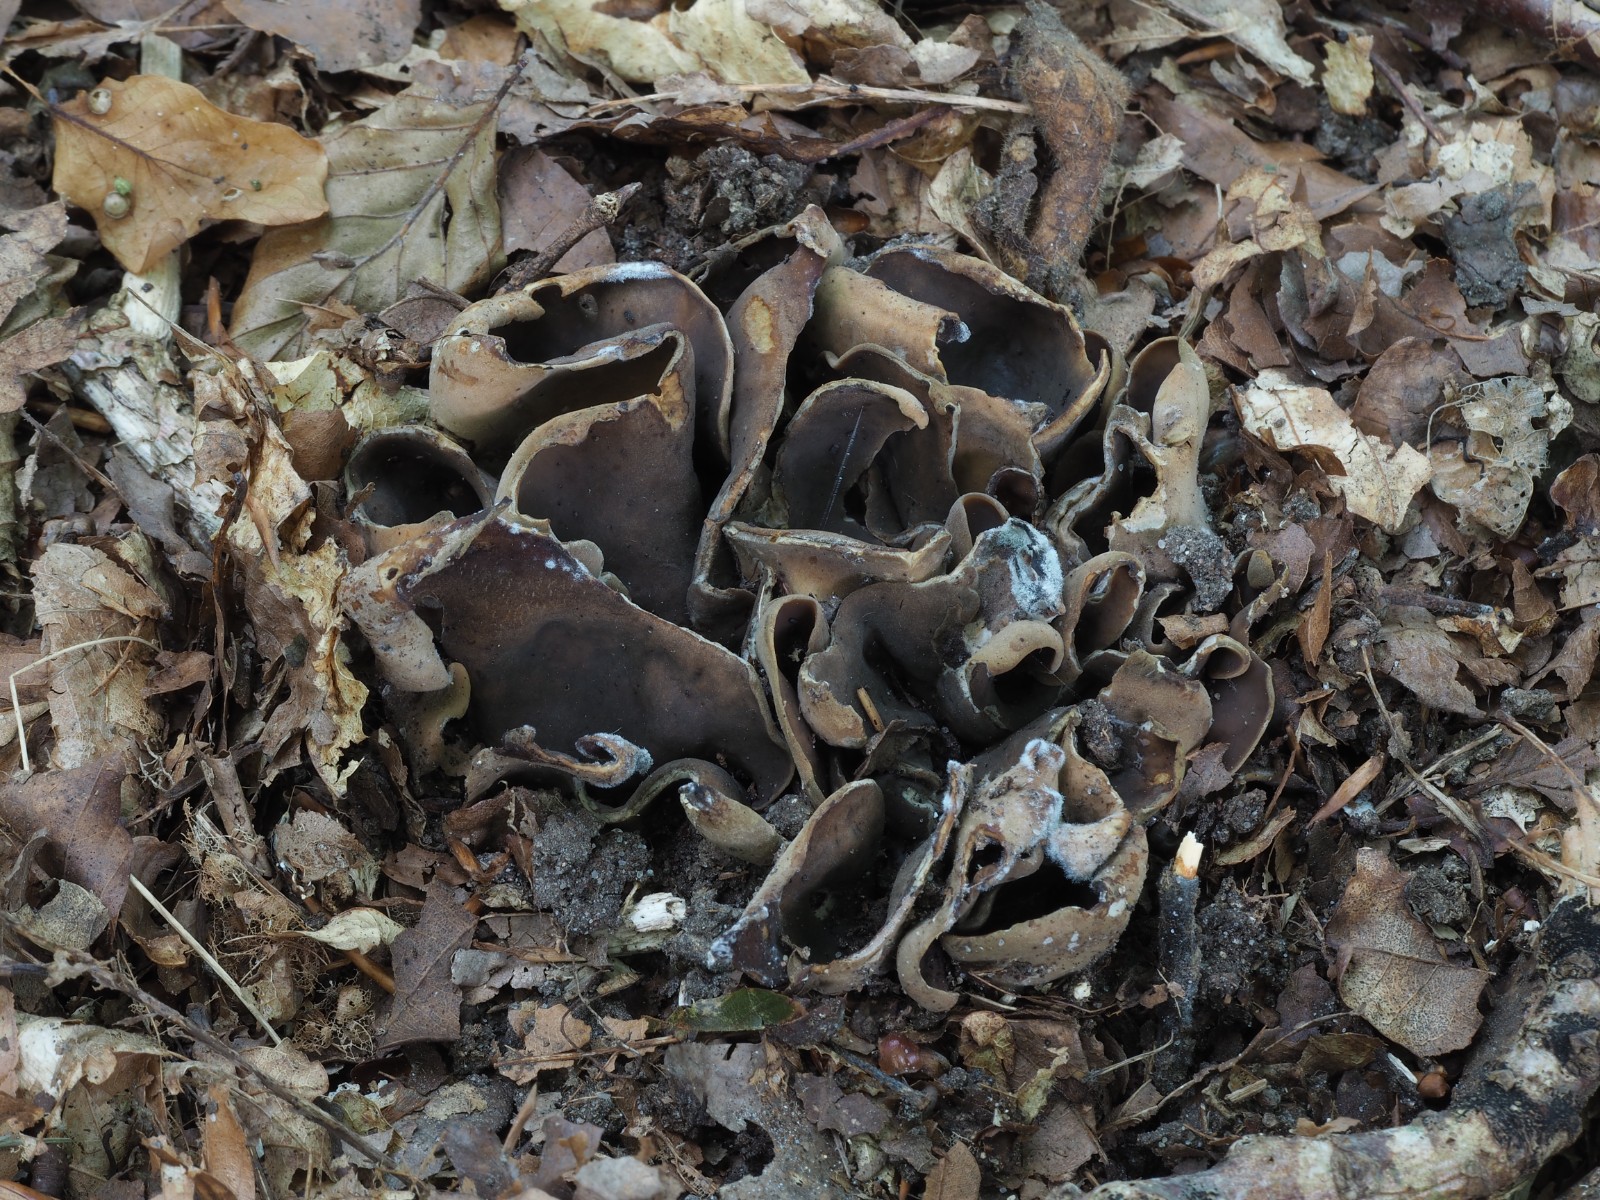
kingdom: Fungi
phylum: Ascomycota
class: Pezizomycetes
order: Pezizales
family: Otideaceae
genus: Otidea
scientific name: Otidea
